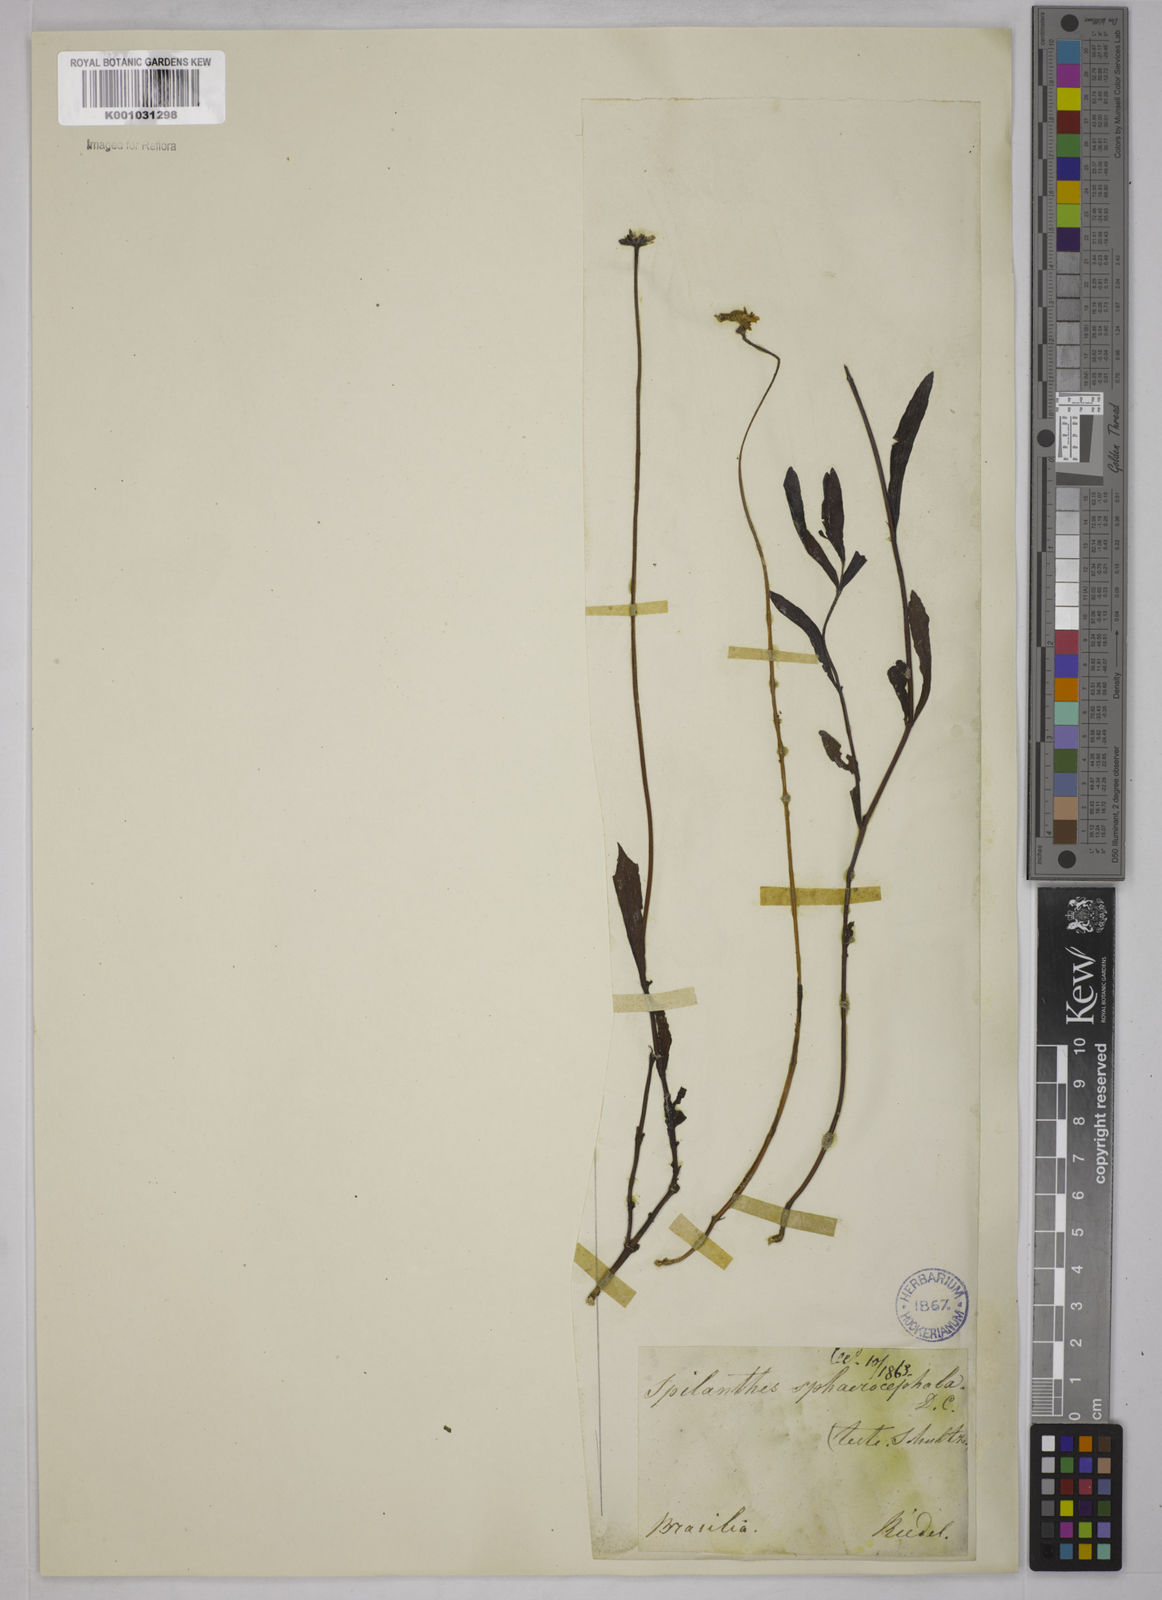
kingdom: Plantae
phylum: Tracheophyta
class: Magnoliopsida
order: Asterales
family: Asteraceae
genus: Acmella
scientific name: Acmella bellidioides
